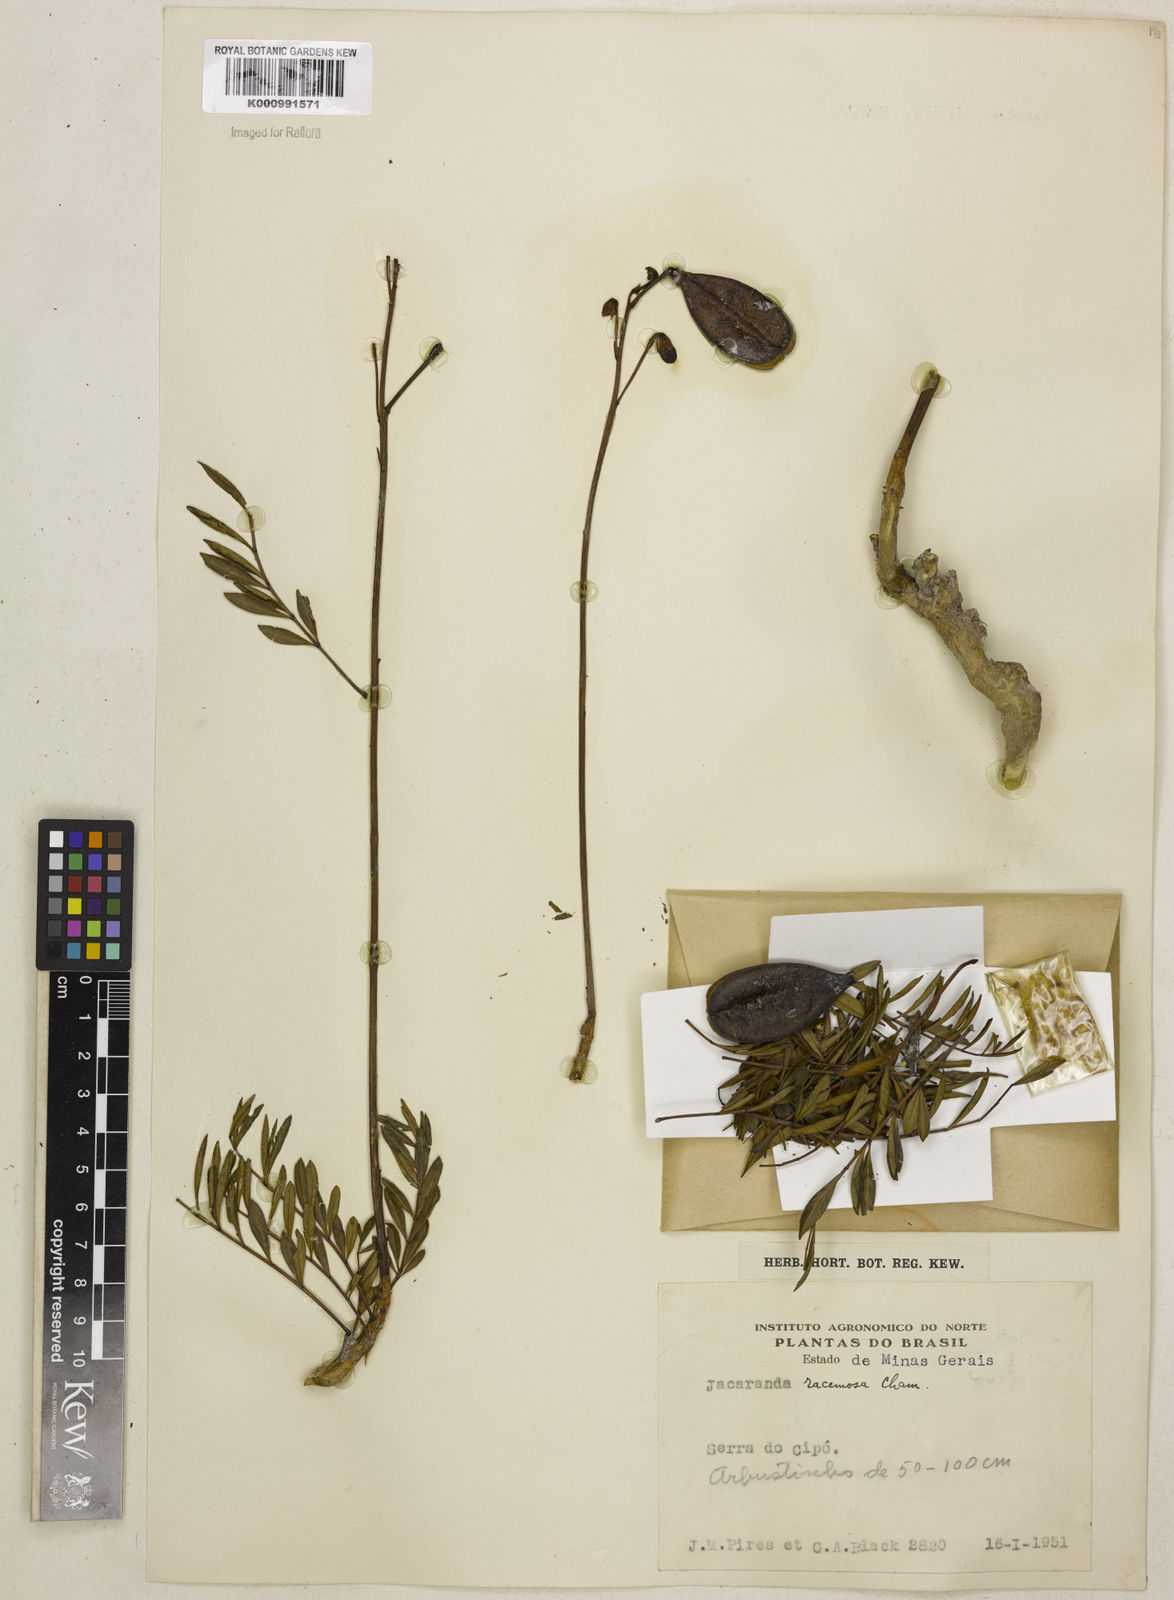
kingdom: Plantae
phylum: Tracheophyta
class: Magnoliopsida
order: Lamiales
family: Bignoniaceae
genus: Jacaranda
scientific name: Jacaranda racemosa
